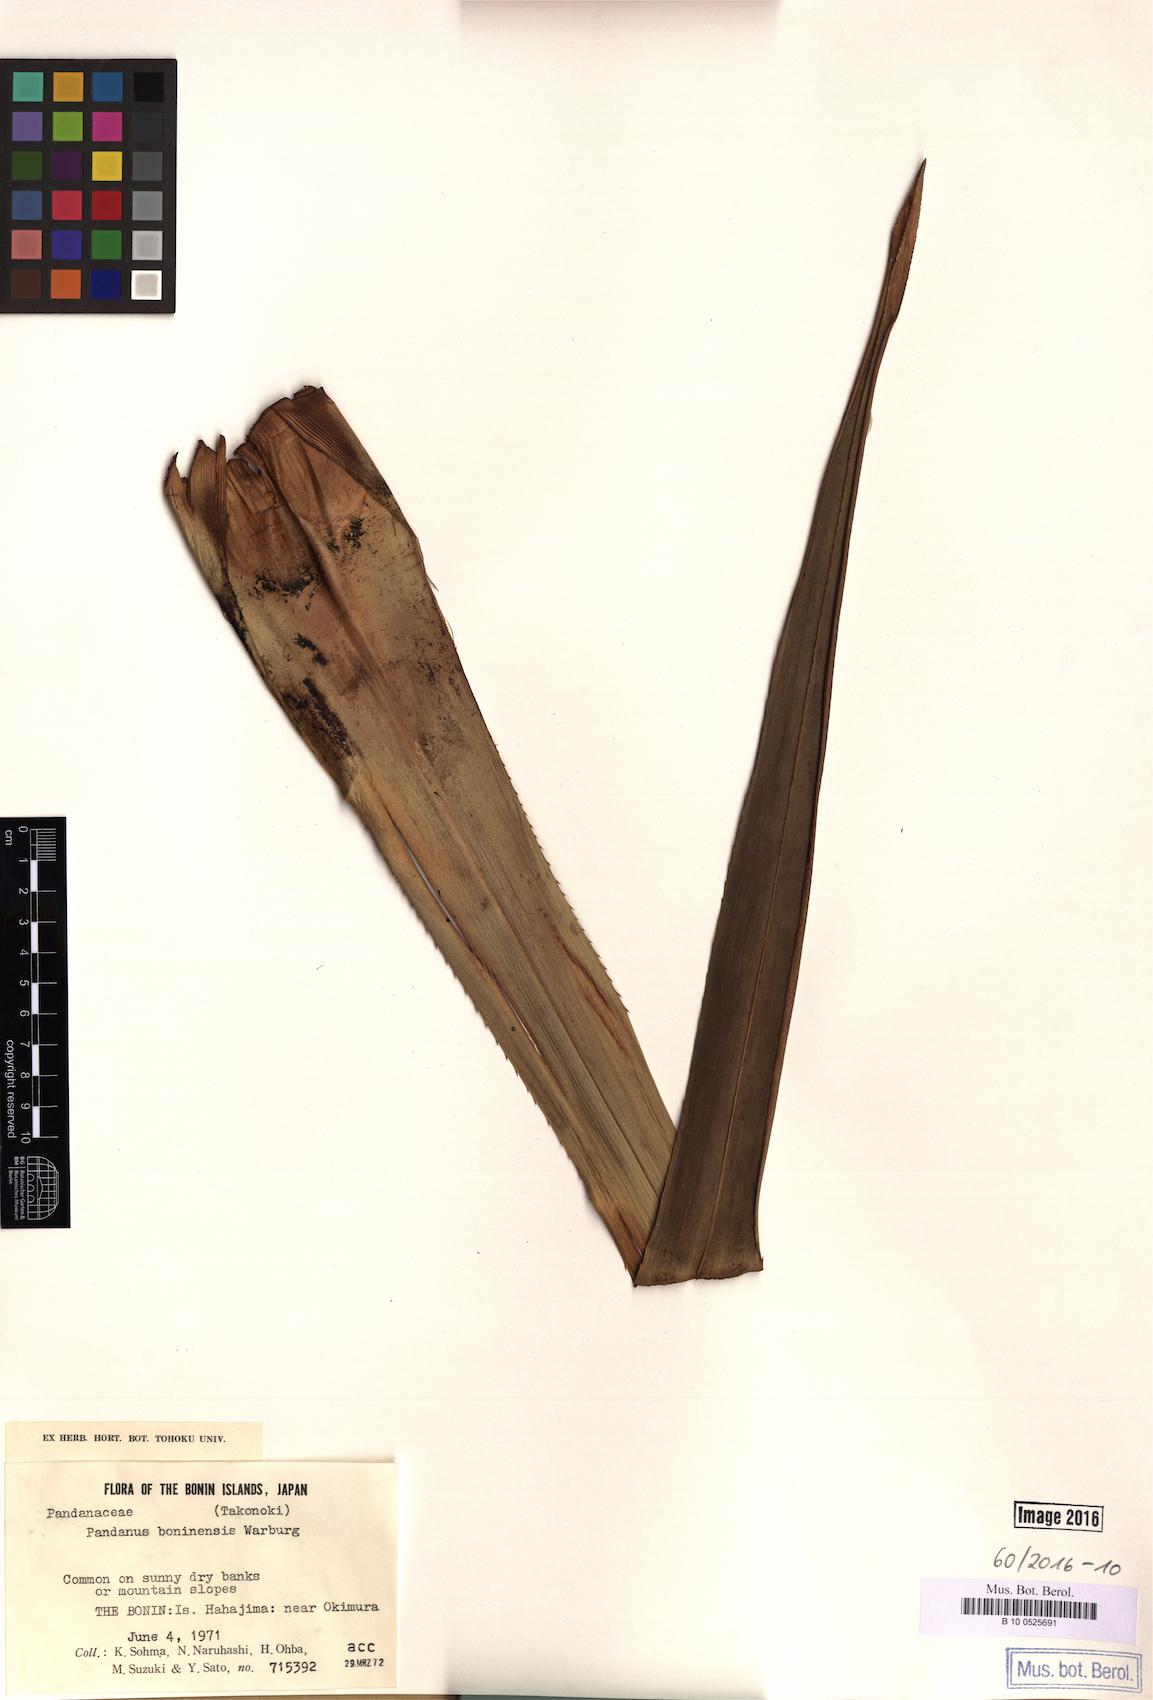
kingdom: Plantae
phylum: Tracheophyta
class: Liliopsida
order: Pandanales
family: Pandanaceae
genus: Pandanus
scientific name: Pandanus boninensis
